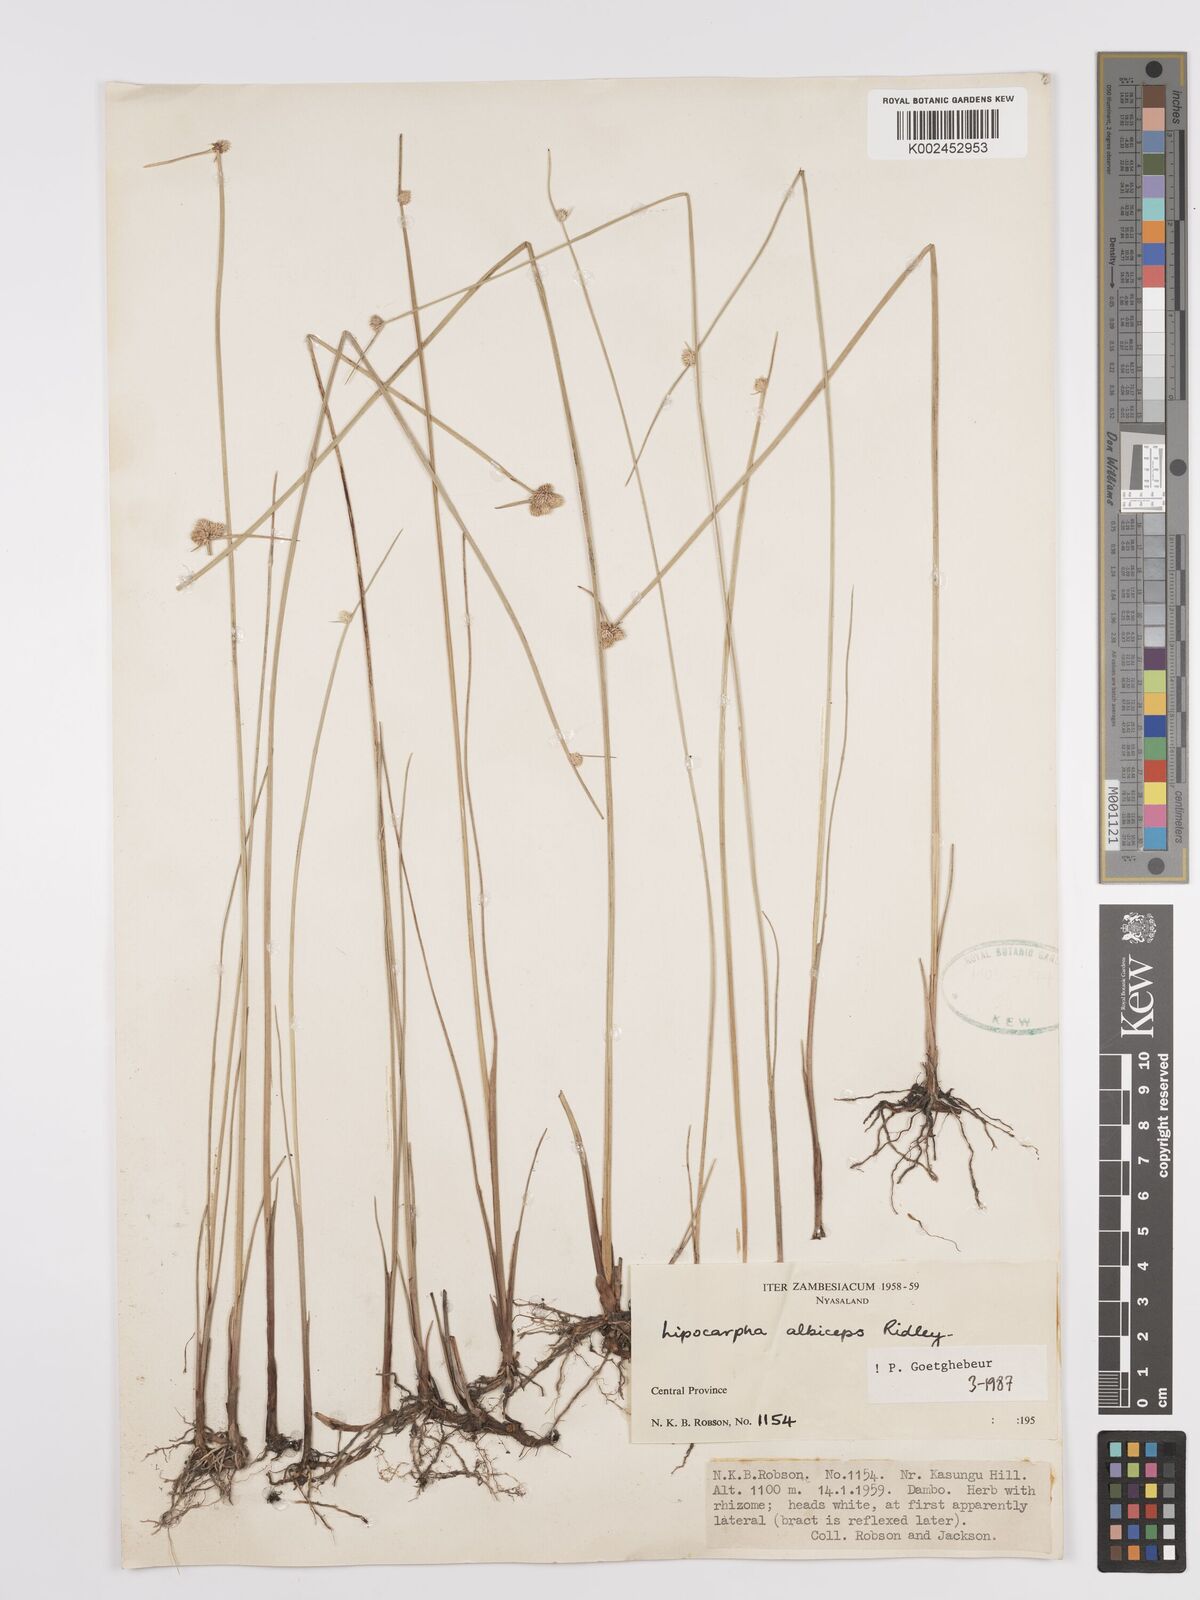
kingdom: Plantae
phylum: Tracheophyta
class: Liliopsida
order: Poales
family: Cyperaceae
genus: Cyperus
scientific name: Cyperus albiceps
